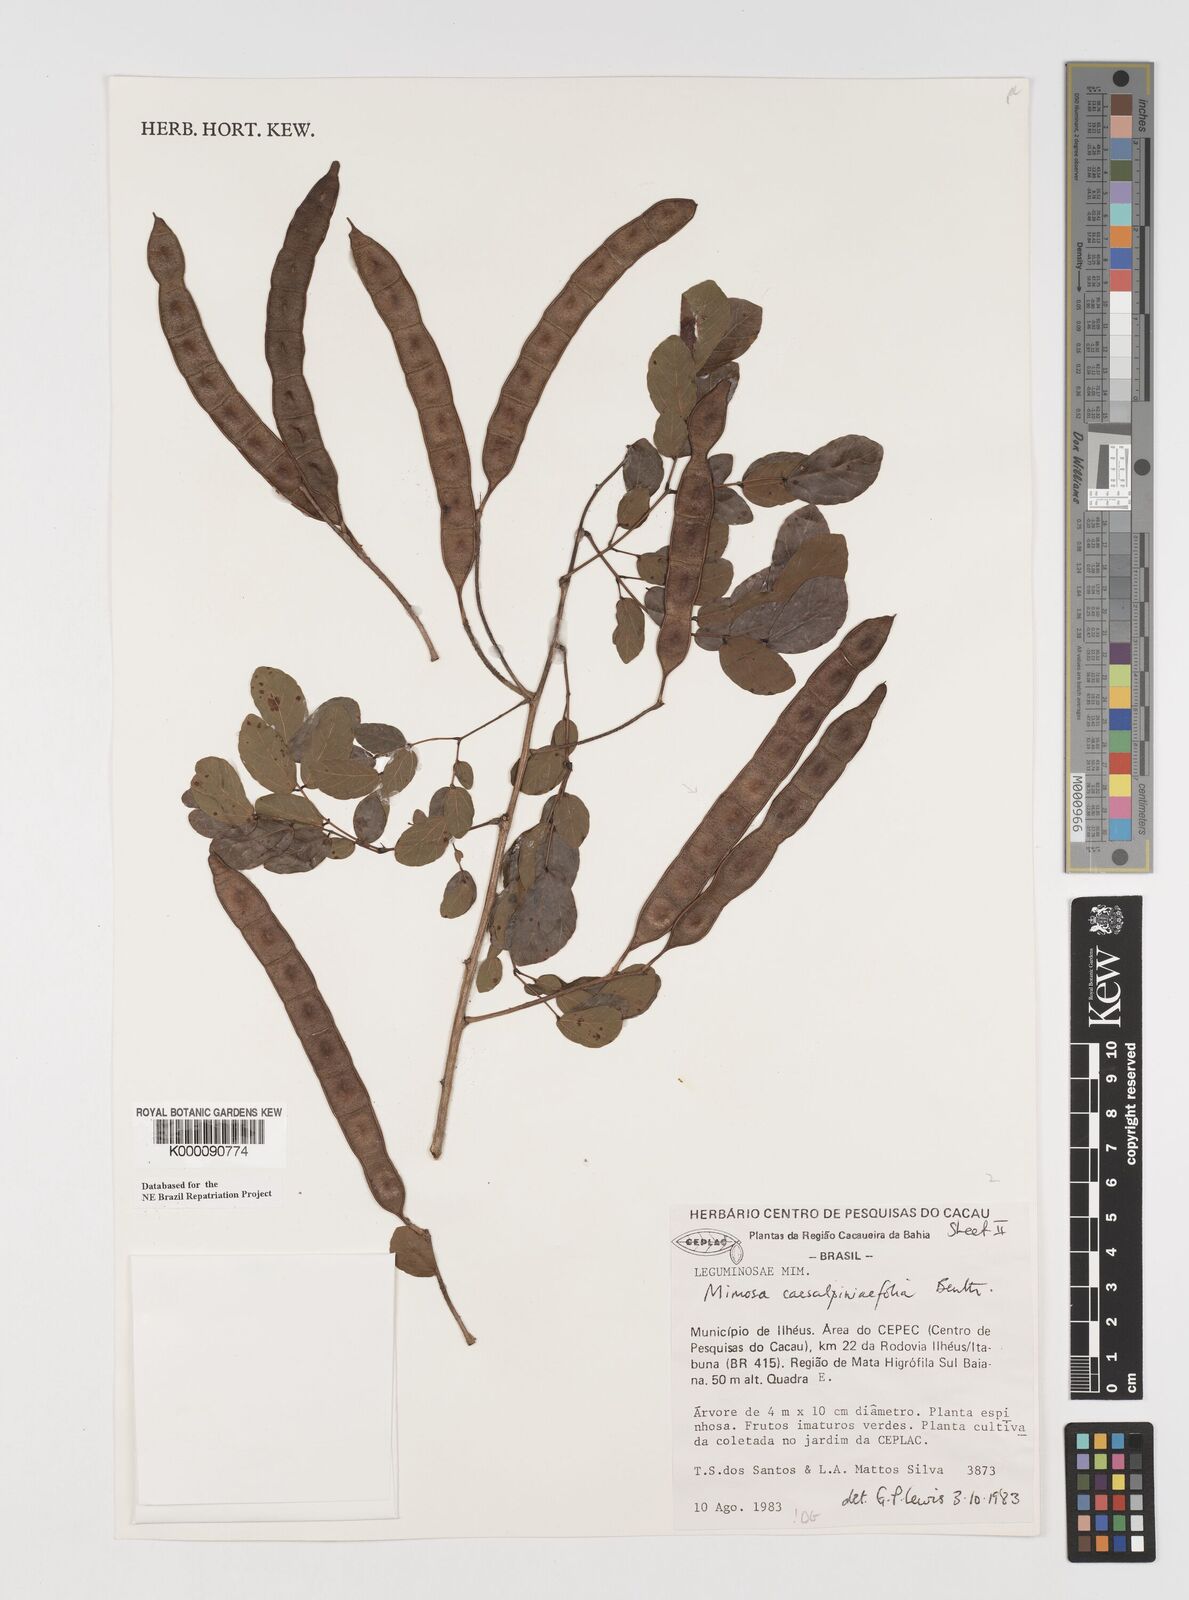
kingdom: Plantae
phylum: Tracheophyta
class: Magnoliopsida
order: Fabales
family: Fabaceae
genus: Mimosa
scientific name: Mimosa caesalpiniifolia
